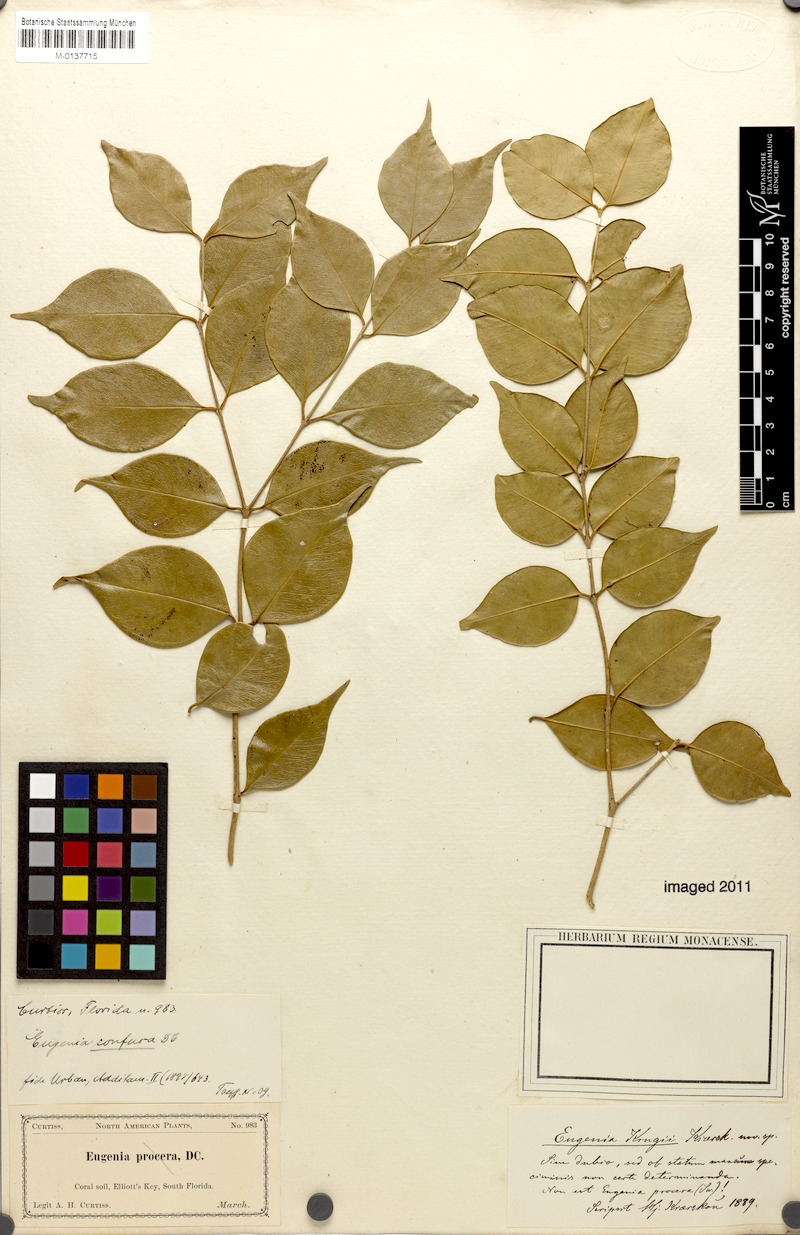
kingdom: Plantae
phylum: Tracheophyta
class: Magnoliopsida
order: Myrtales
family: Myrtaceae
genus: Eugenia
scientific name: Eugenia confusa
